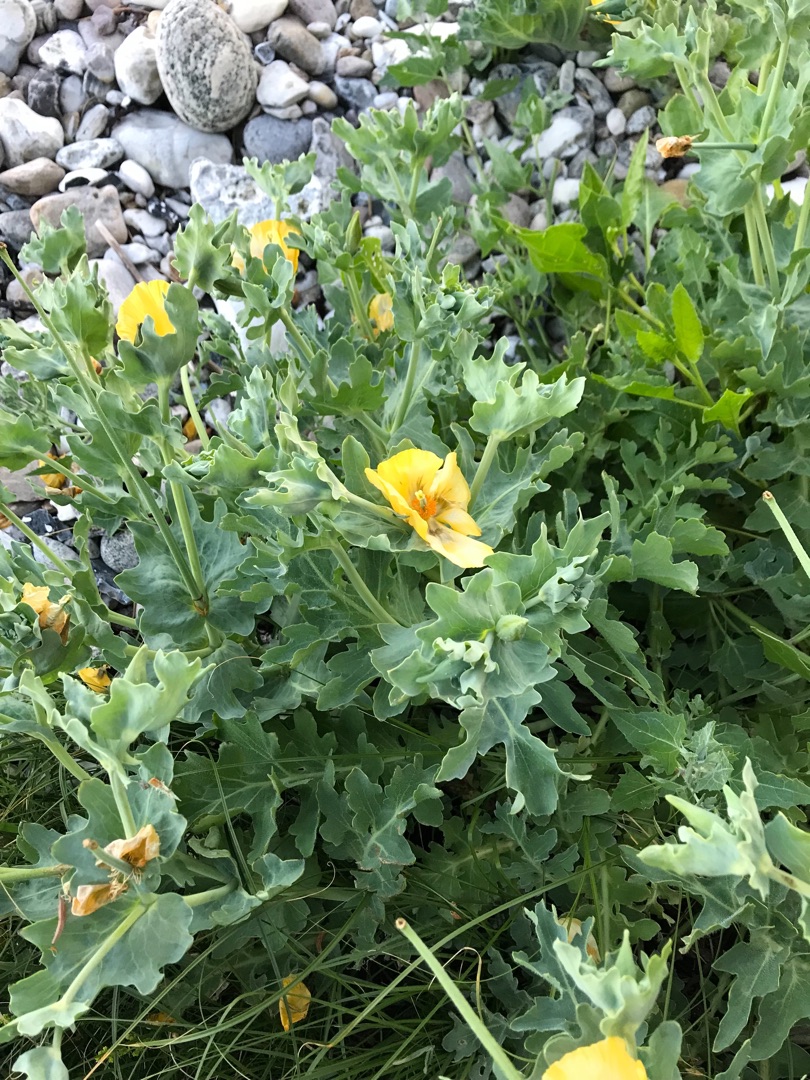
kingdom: Plantae
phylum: Tracheophyta
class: Magnoliopsida
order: Ranunculales
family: Papaveraceae
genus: Glaucium
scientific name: Glaucium flavum
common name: Hornskulpe
